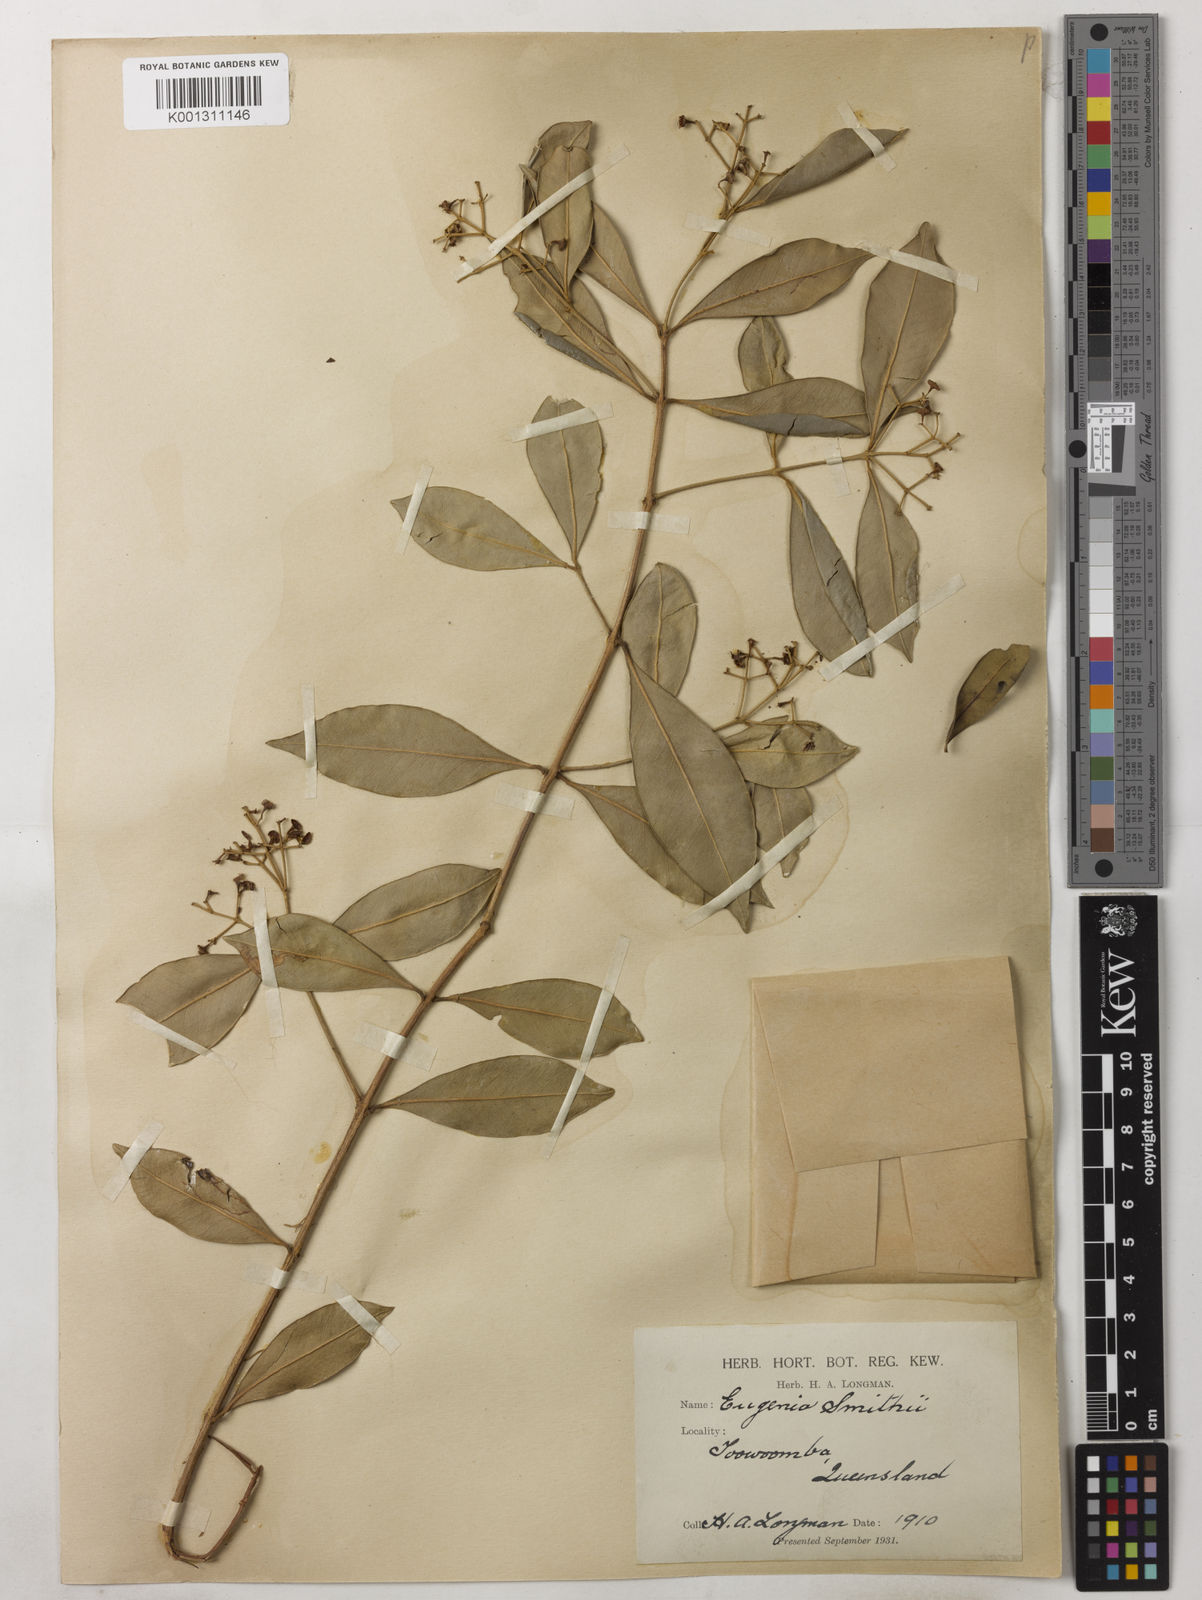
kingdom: Plantae
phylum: Tracheophyta
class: Magnoliopsida
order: Myrtales
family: Myrtaceae
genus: Syzygium
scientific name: Syzygium smithii
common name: Lilly-pilly
